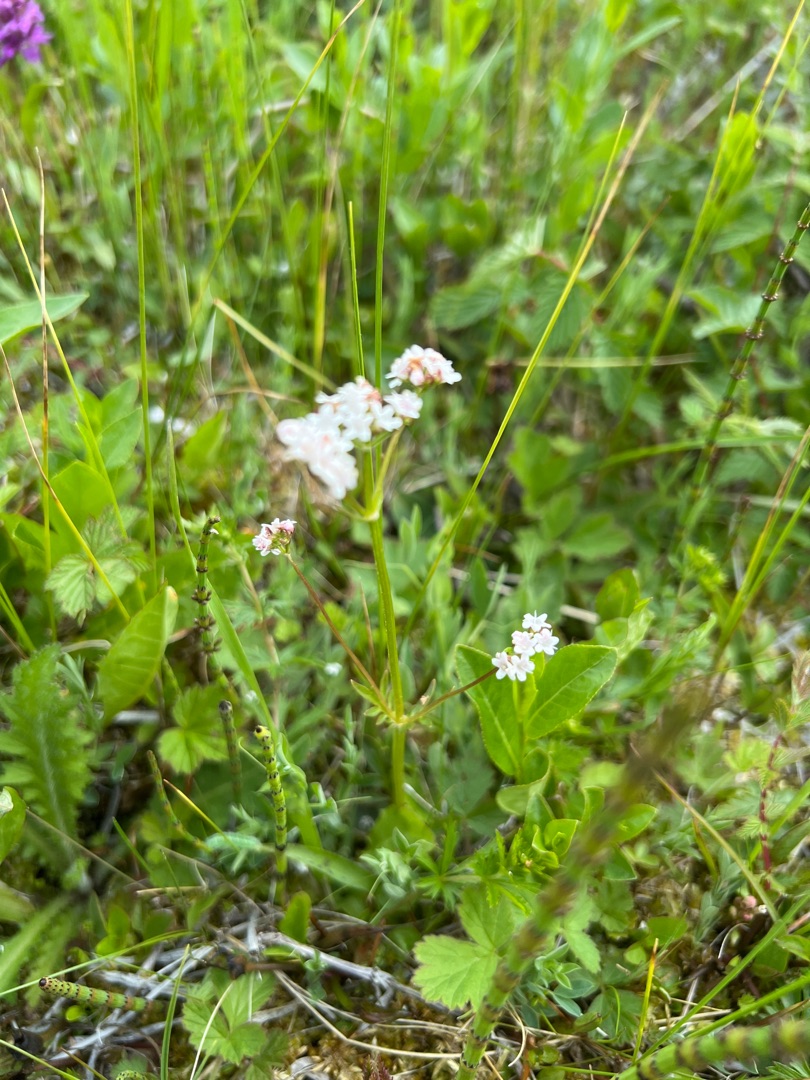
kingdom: Plantae
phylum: Tracheophyta
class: Magnoliopsida
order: Dipsacales
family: Caprifoliaceae
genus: Valeriana
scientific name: Valeriana dioica
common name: Tvebo baldrian
